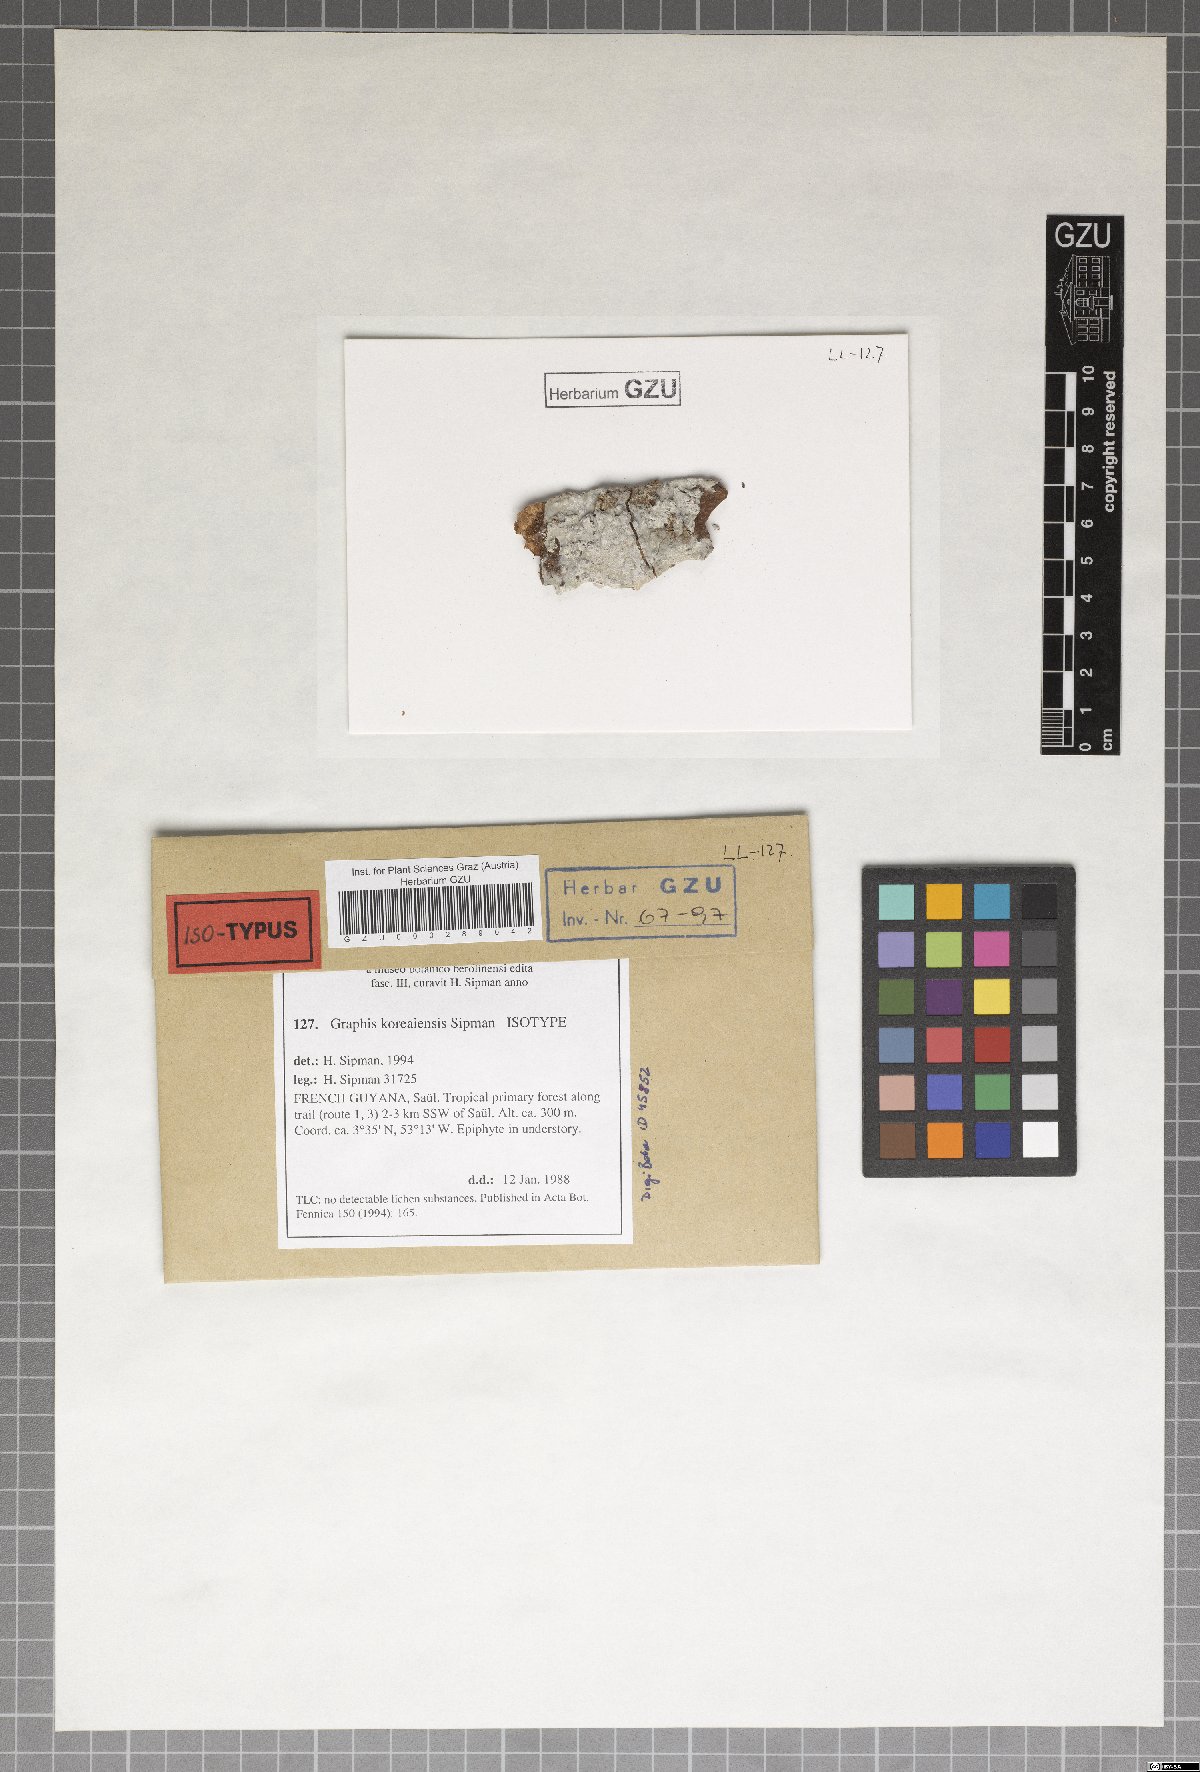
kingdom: Fungi
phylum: Ascomycota
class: Lecanoromycetes
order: Ostropales
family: Graphidaceae
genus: Gymnographopsis
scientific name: Gymnographopsis koreaiensis
